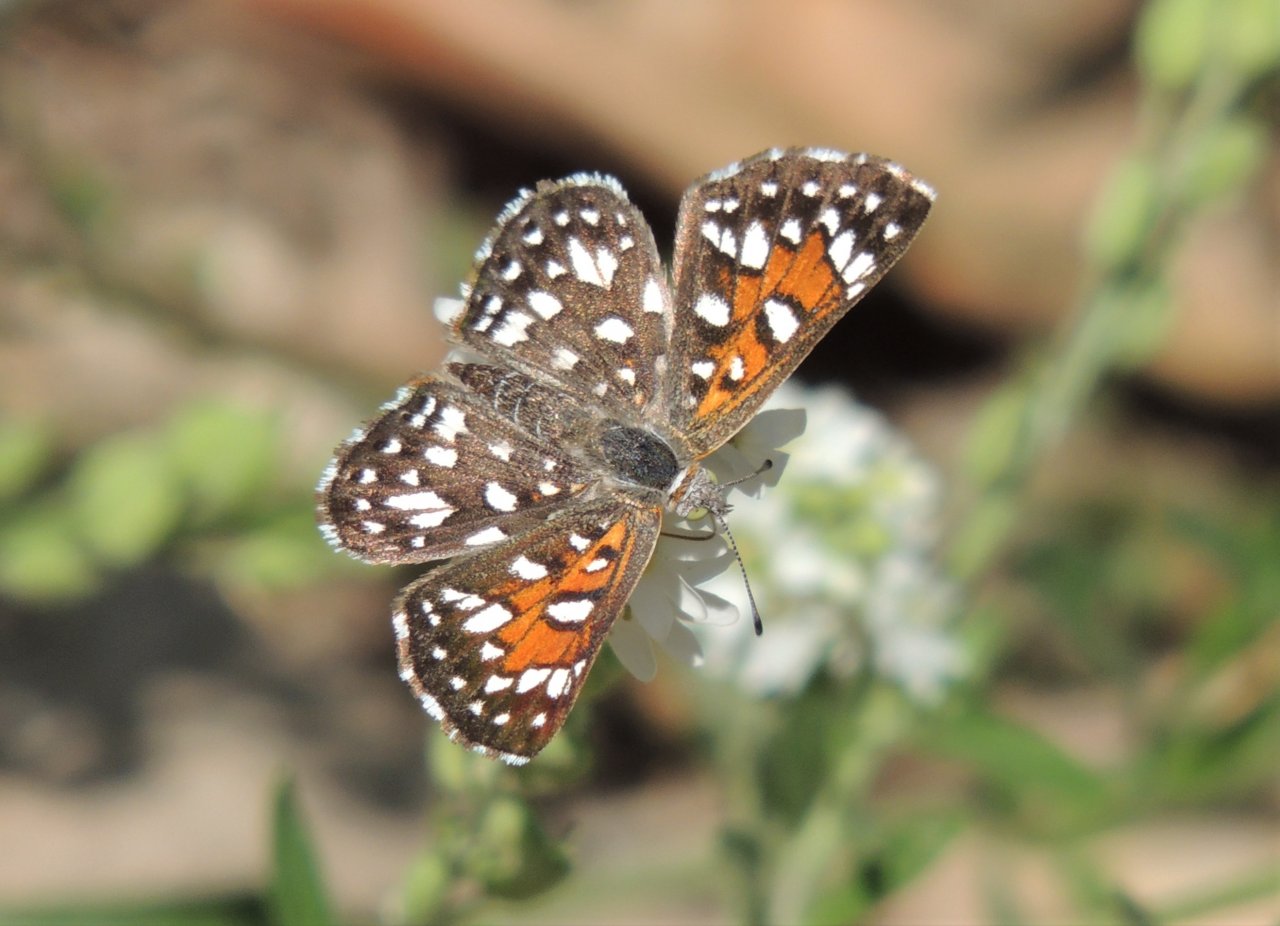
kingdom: Animalia
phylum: Arthropoda
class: Insecta
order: Lepidoptera
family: Riodinidae
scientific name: Riodinidae
